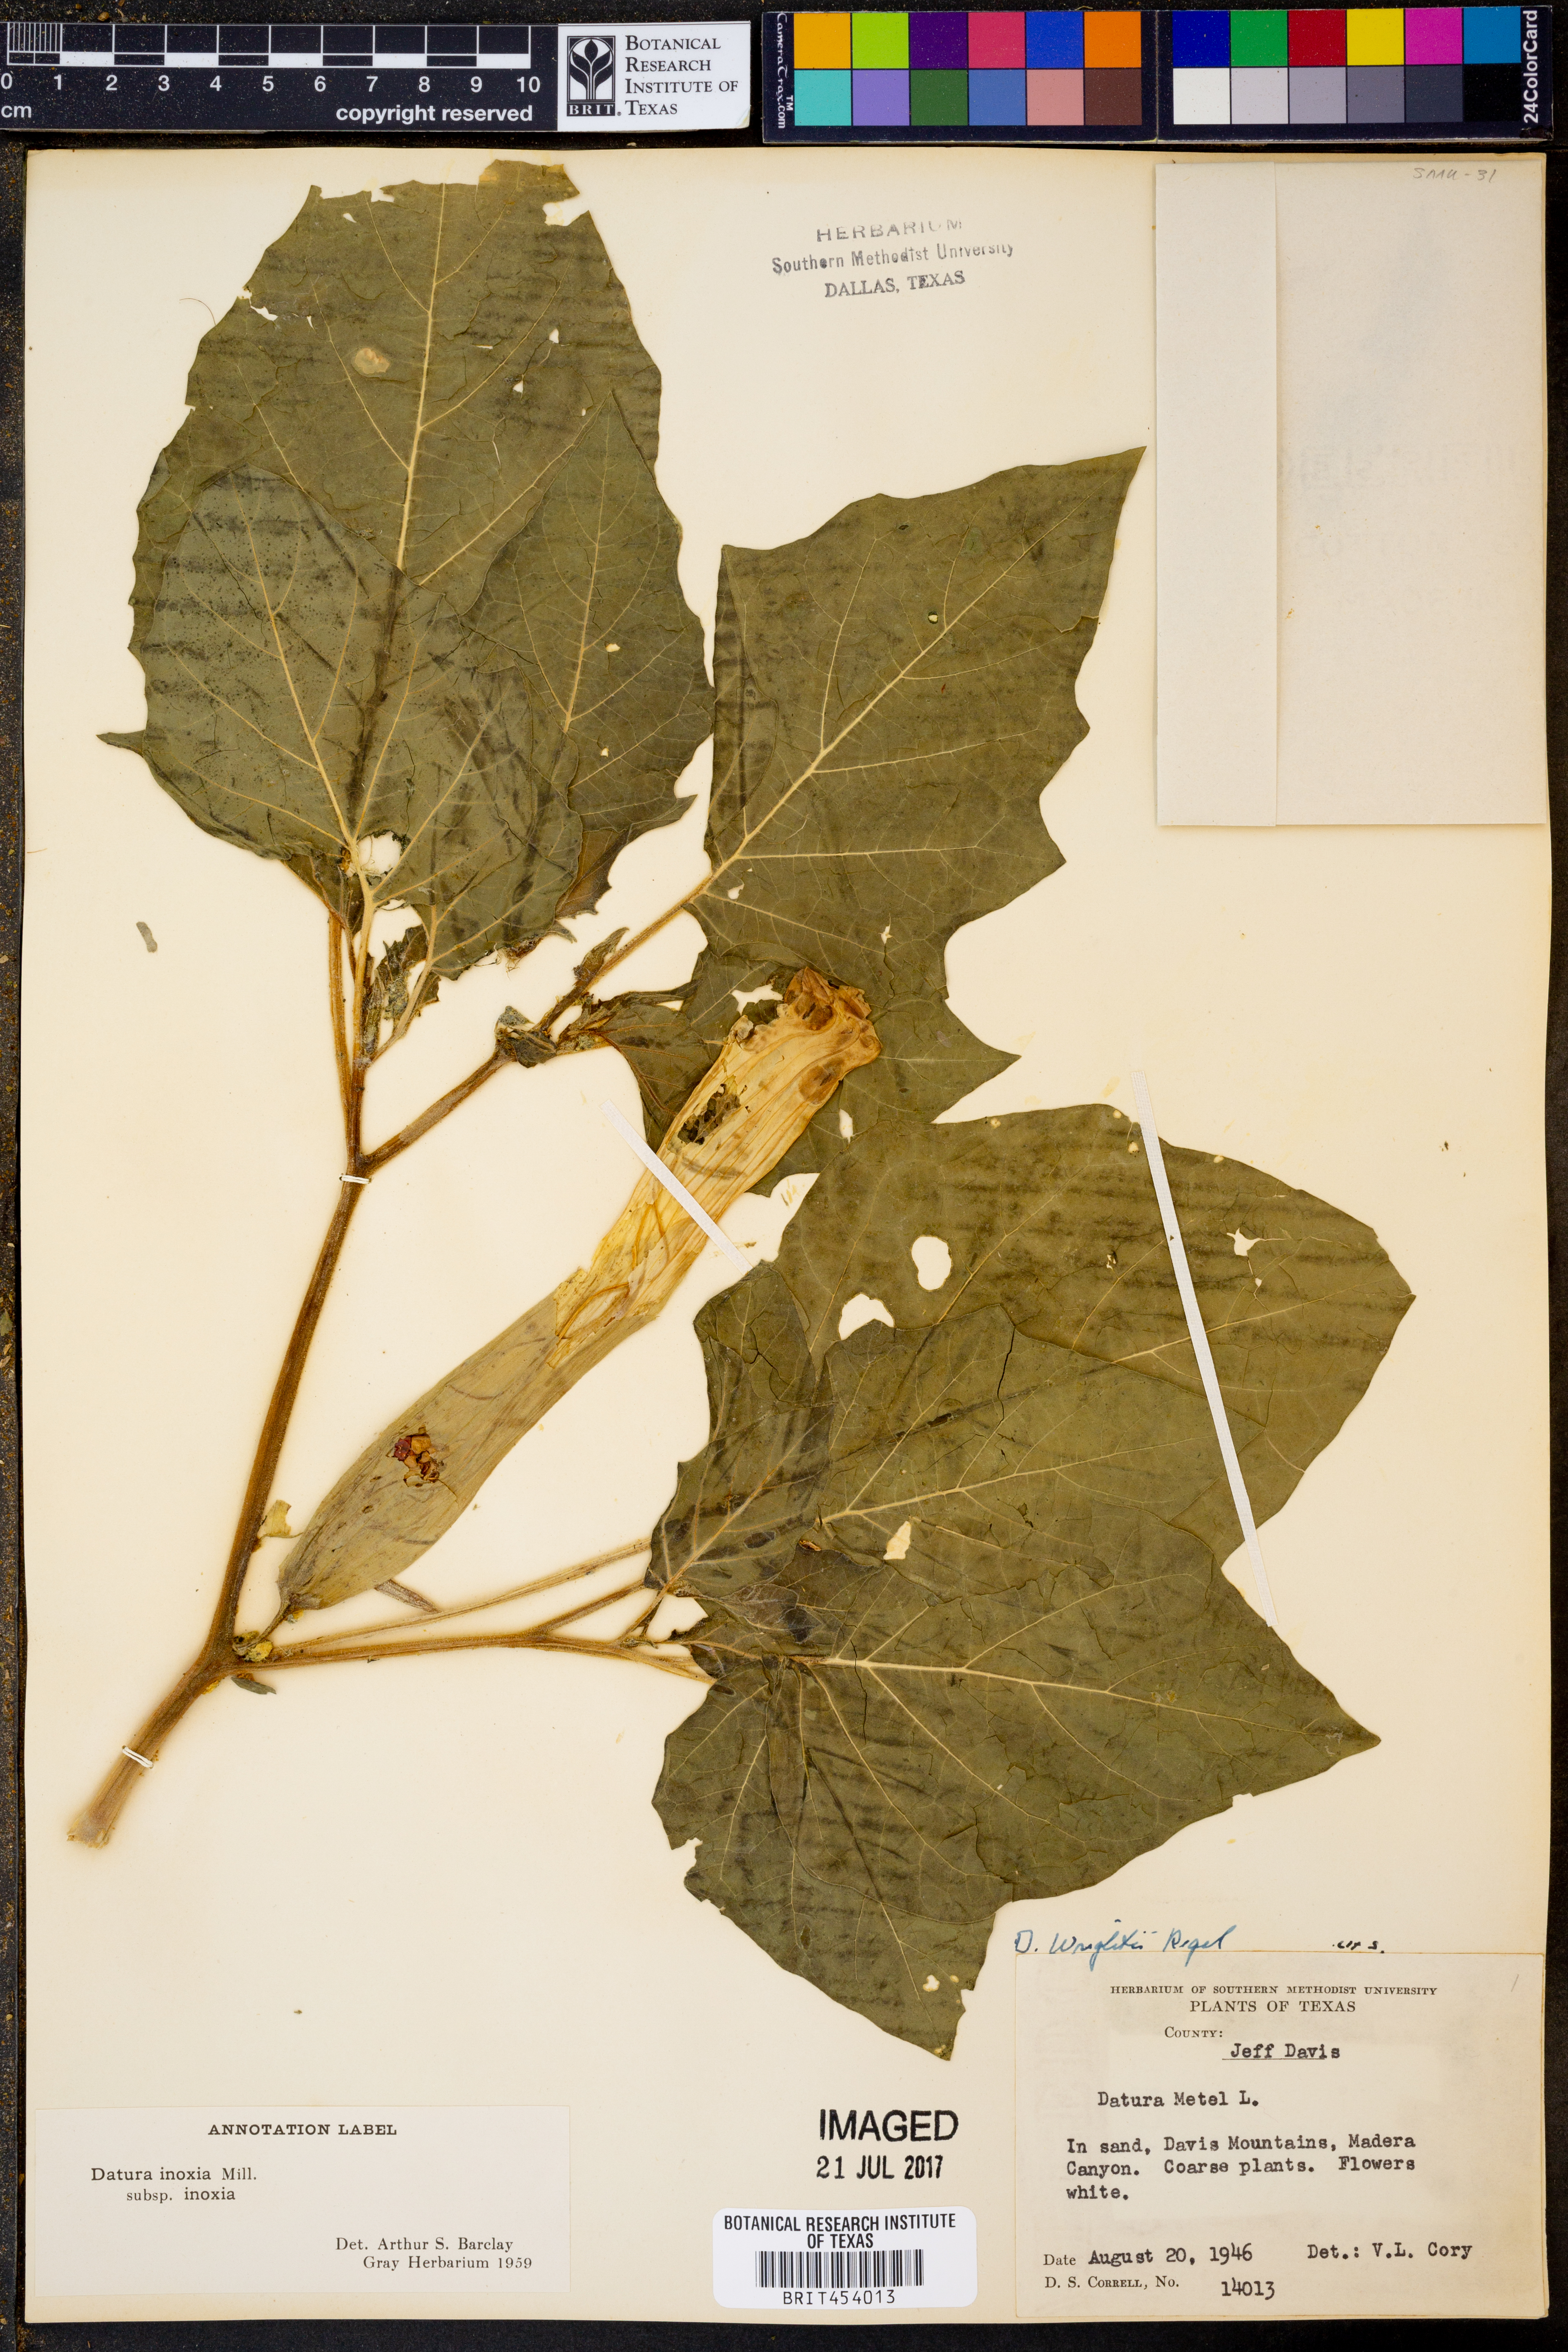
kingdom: Plantae
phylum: Tracheophyta
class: Magnoliopsida
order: Solanales
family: Solanaceae
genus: Datura
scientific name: Datura metel
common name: Jimsonweed
